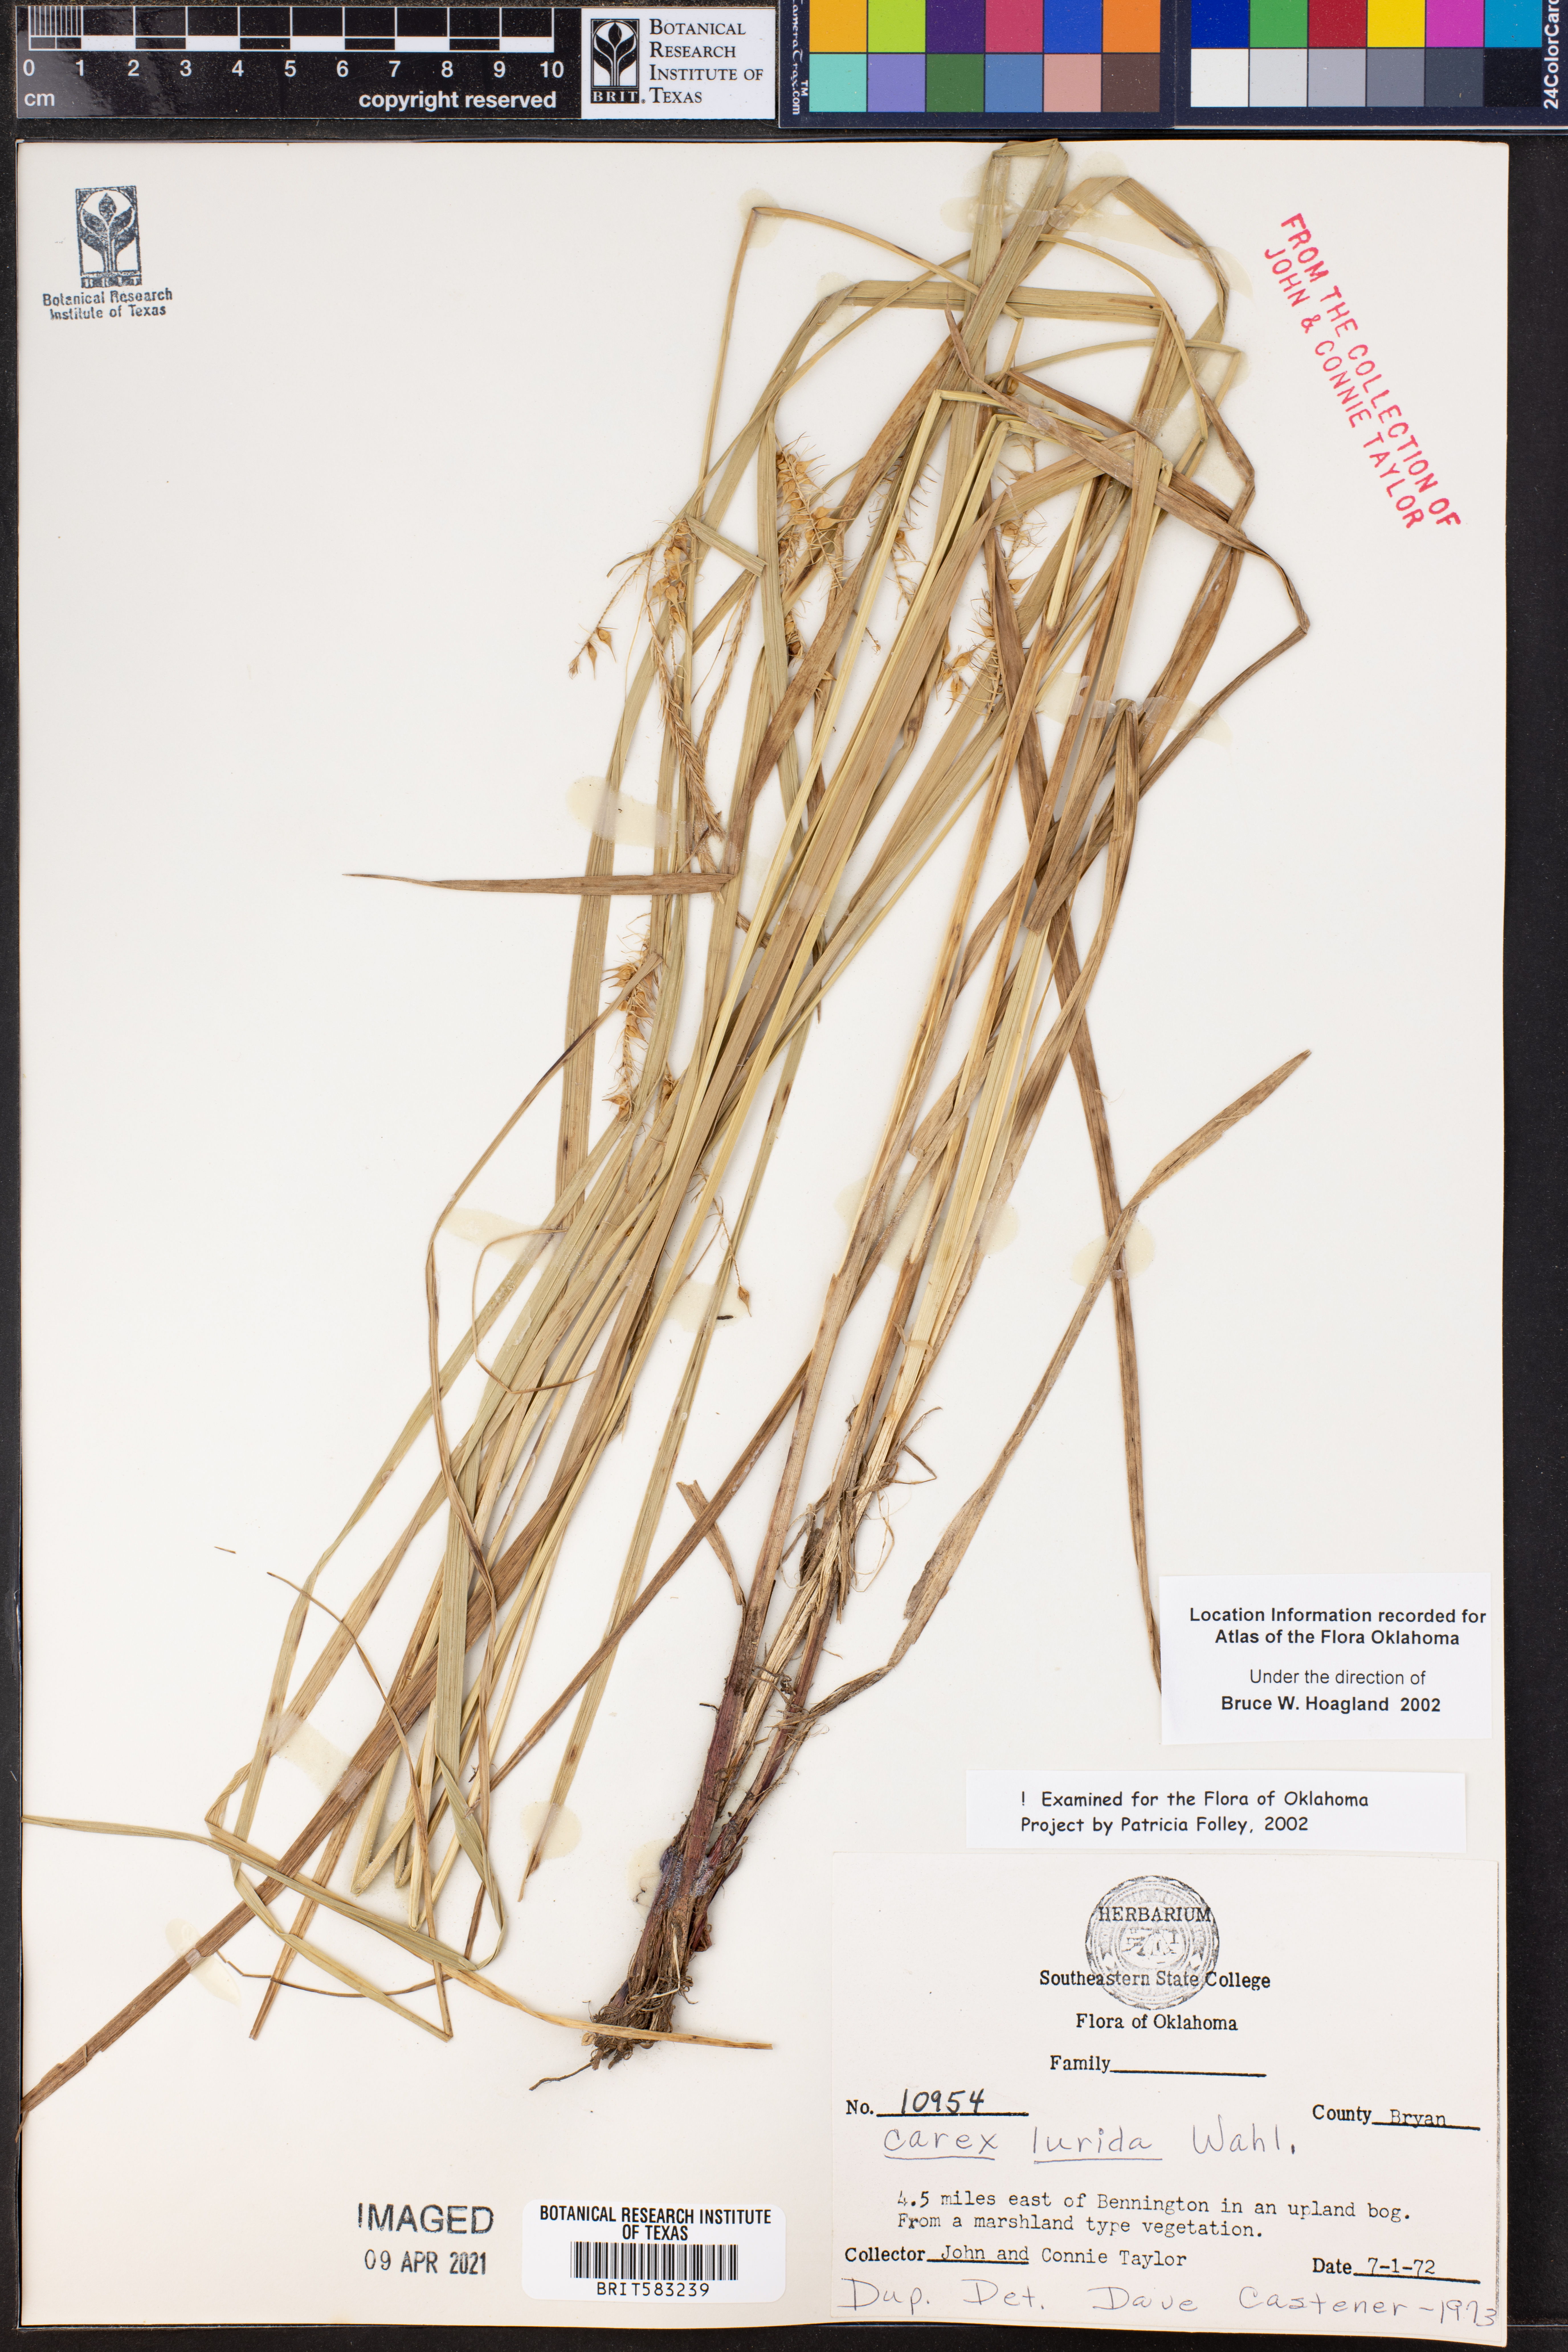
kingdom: Plantae
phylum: Tracheophyta
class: Liliopsida
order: Poales
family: Cyperaceae
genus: Carex
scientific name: Carex lurida
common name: Sallow sedge
